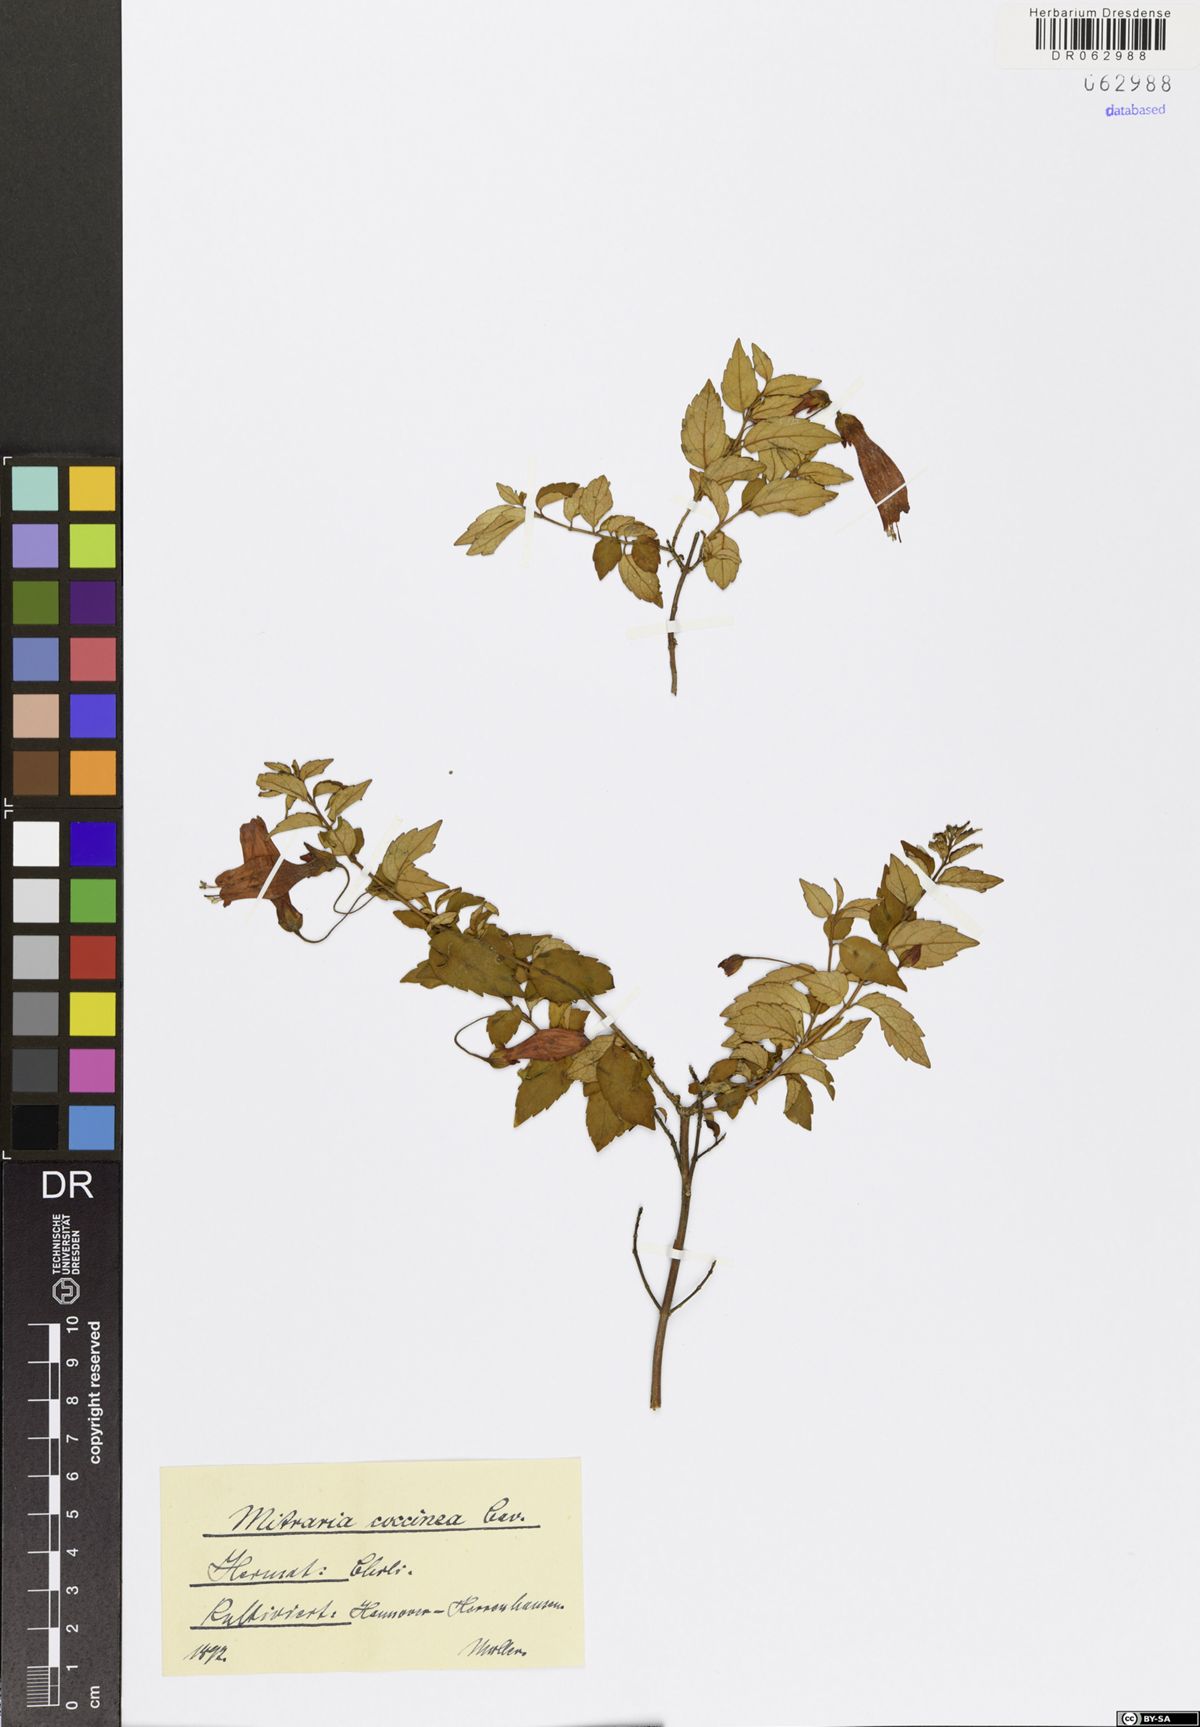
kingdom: Plantae
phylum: Tracheophyta
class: Magnoliopsida
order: Lamiales
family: Gesneriaceae
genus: Mitraria
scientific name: Mitraria coccinea
